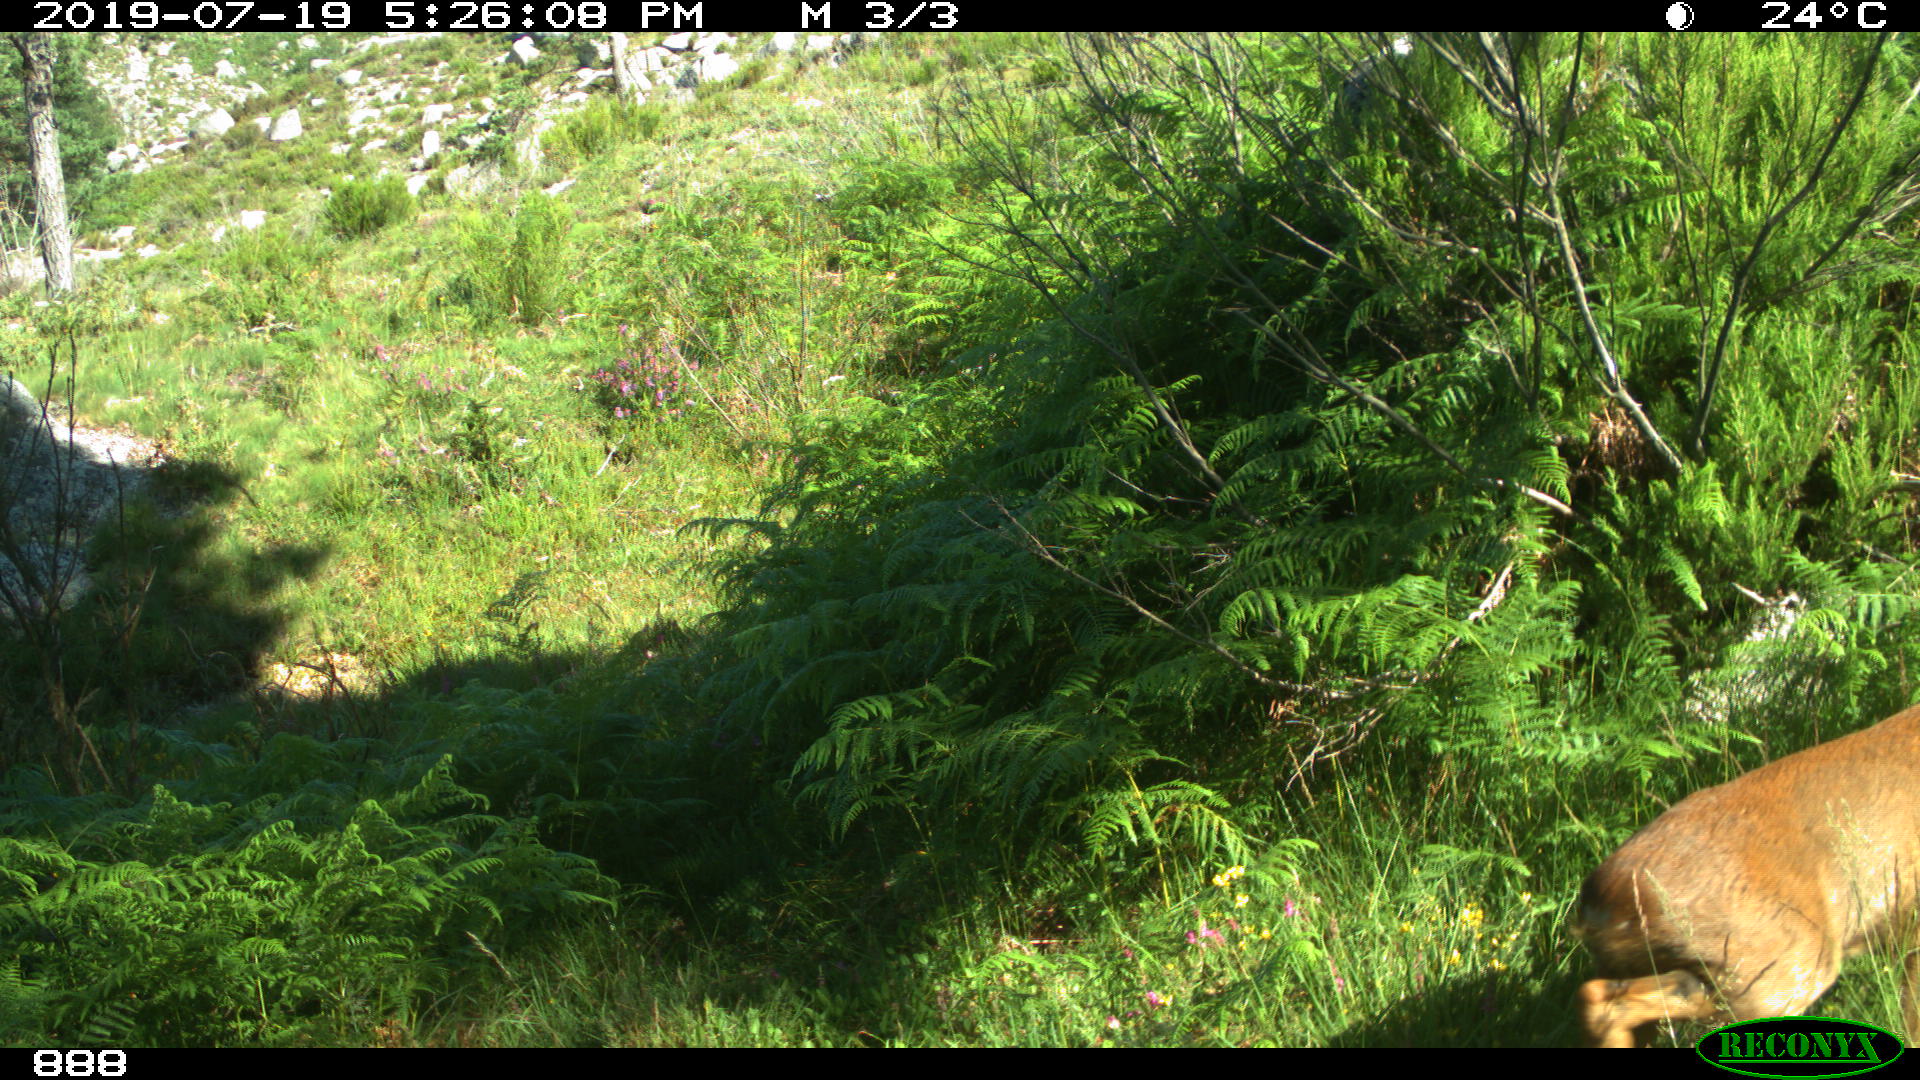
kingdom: Animalia
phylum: Chordata
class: Mammalia
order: Artiodactyla
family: Cervidae
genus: Capreolus
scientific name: Capreolus capreolus
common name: Western roe deer
